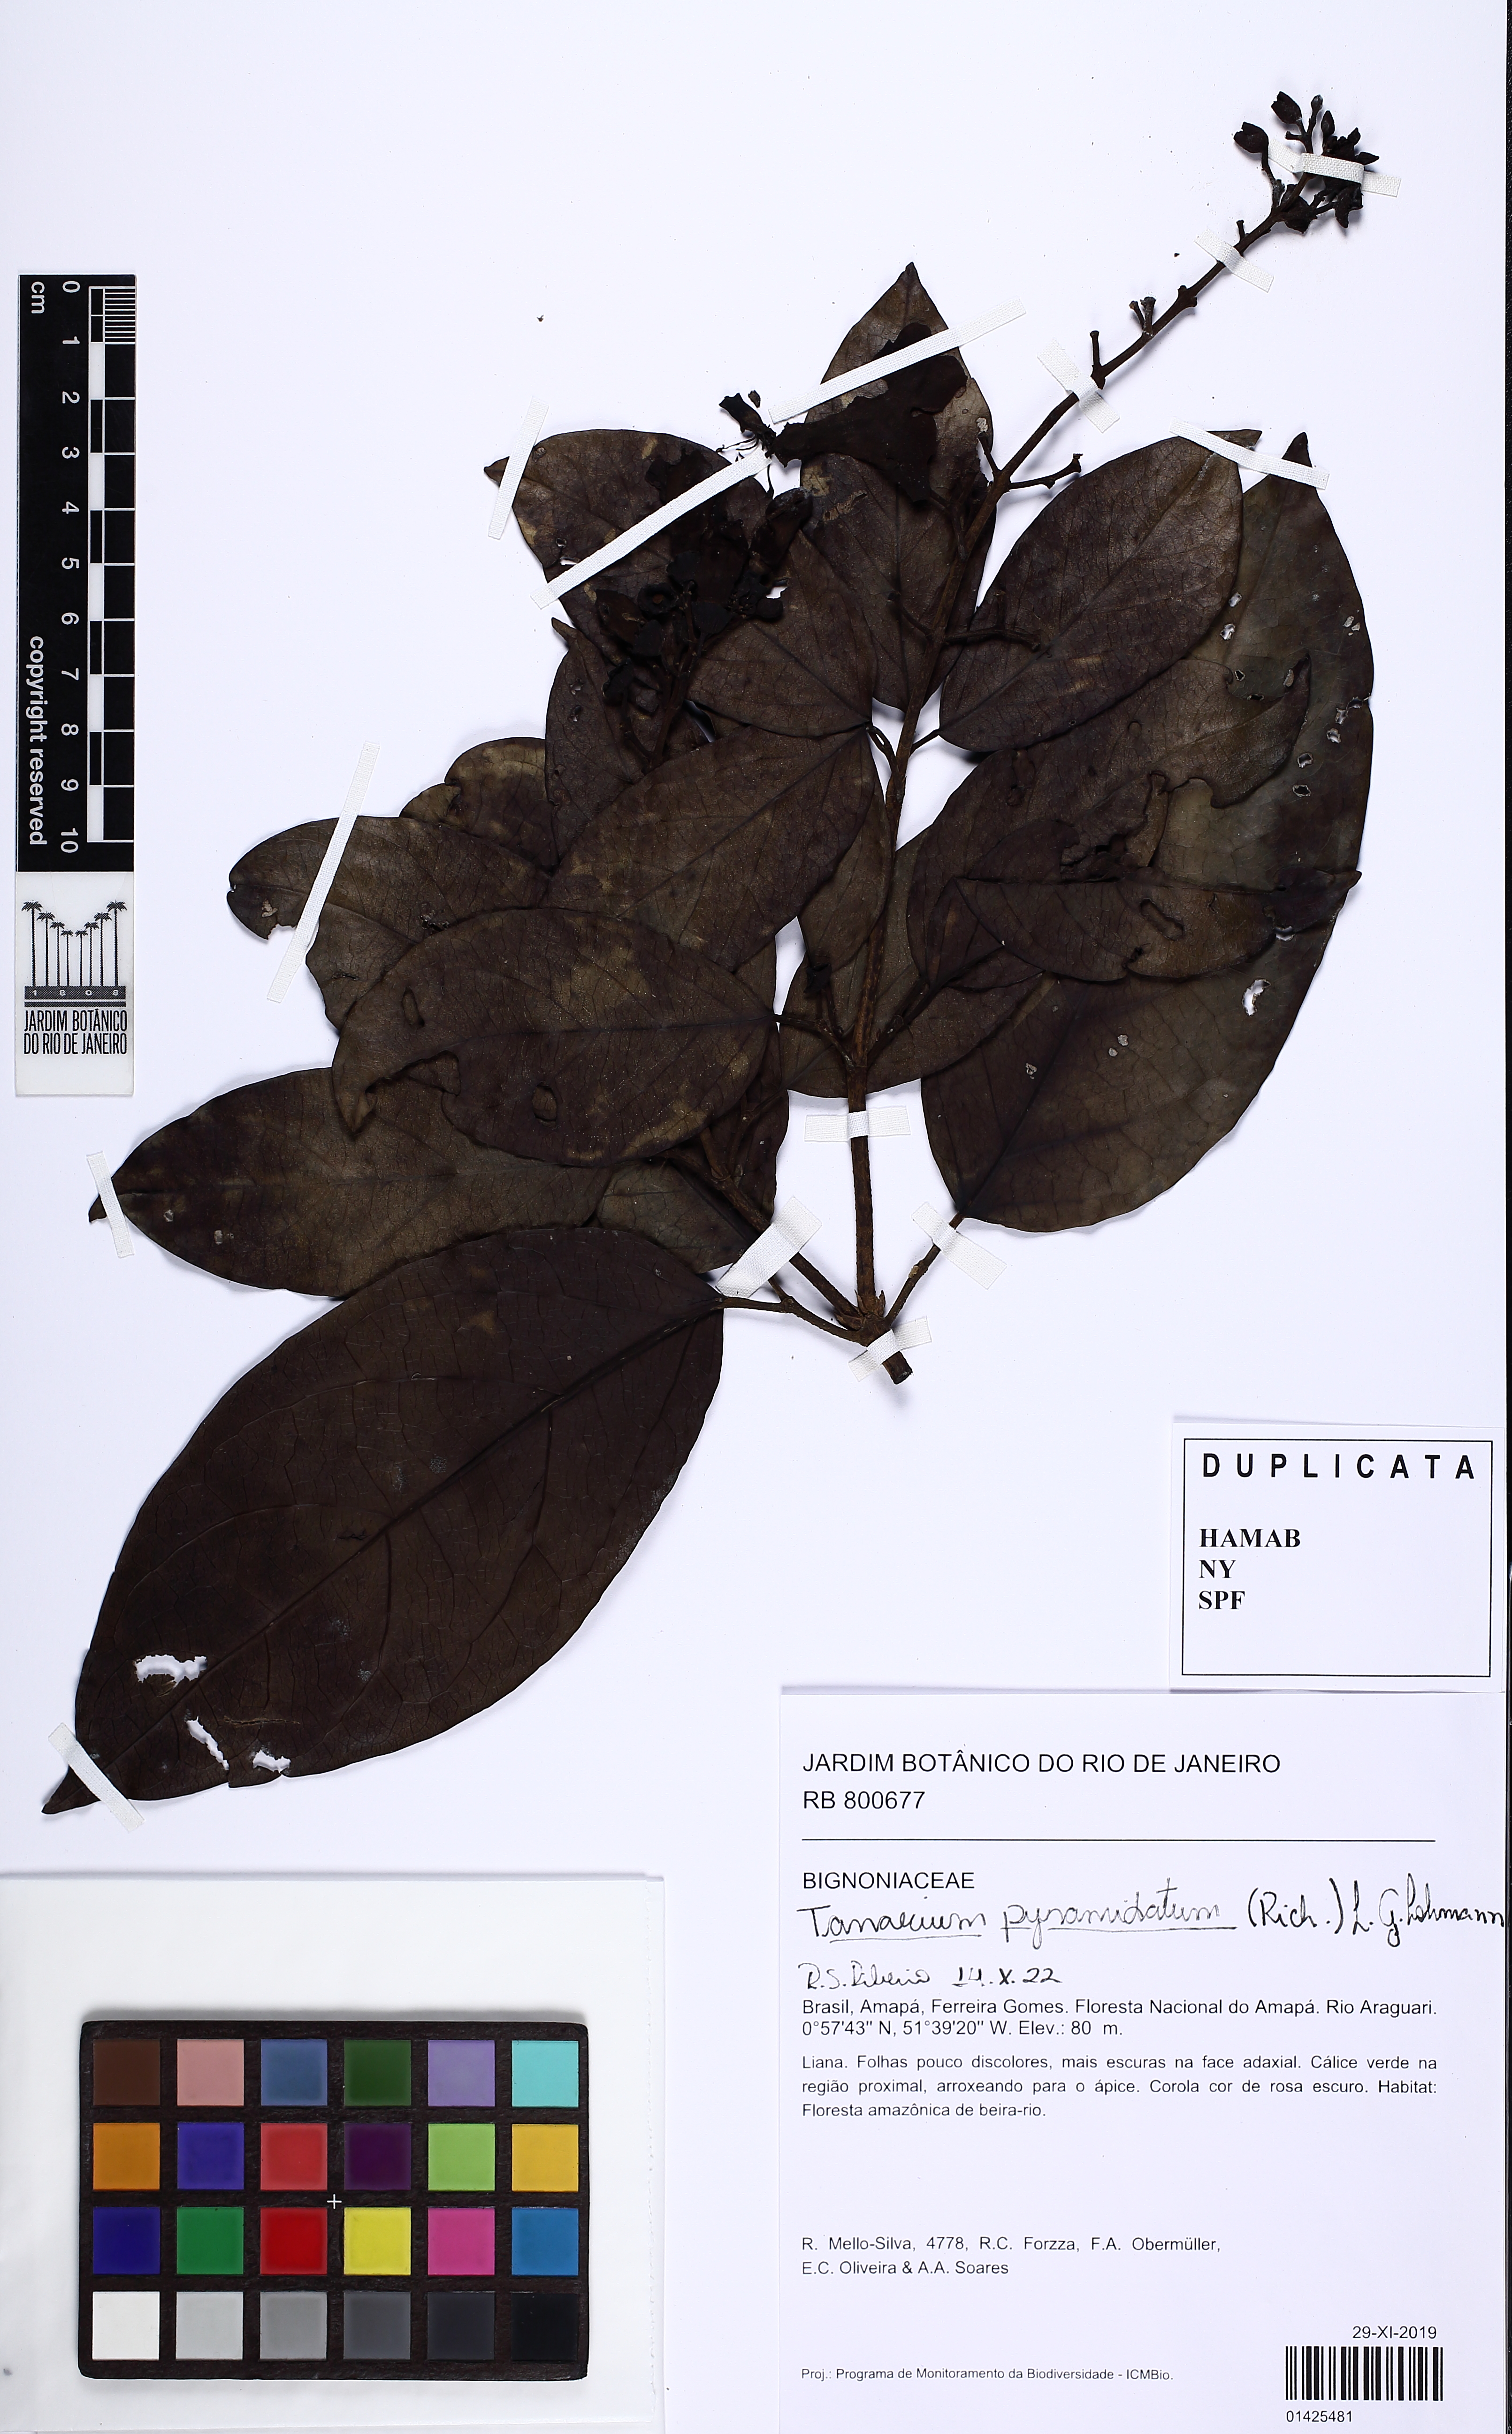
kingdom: Plantae
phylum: Tracheophyta
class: Magnoliopsida
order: Lamiales
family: Bignoniaceae
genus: Tanaecium
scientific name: Tanaecium pyramidatum
